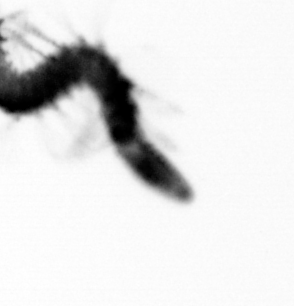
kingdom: Animalia
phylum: Annelida
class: Polychaeta
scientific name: Polychaeta
